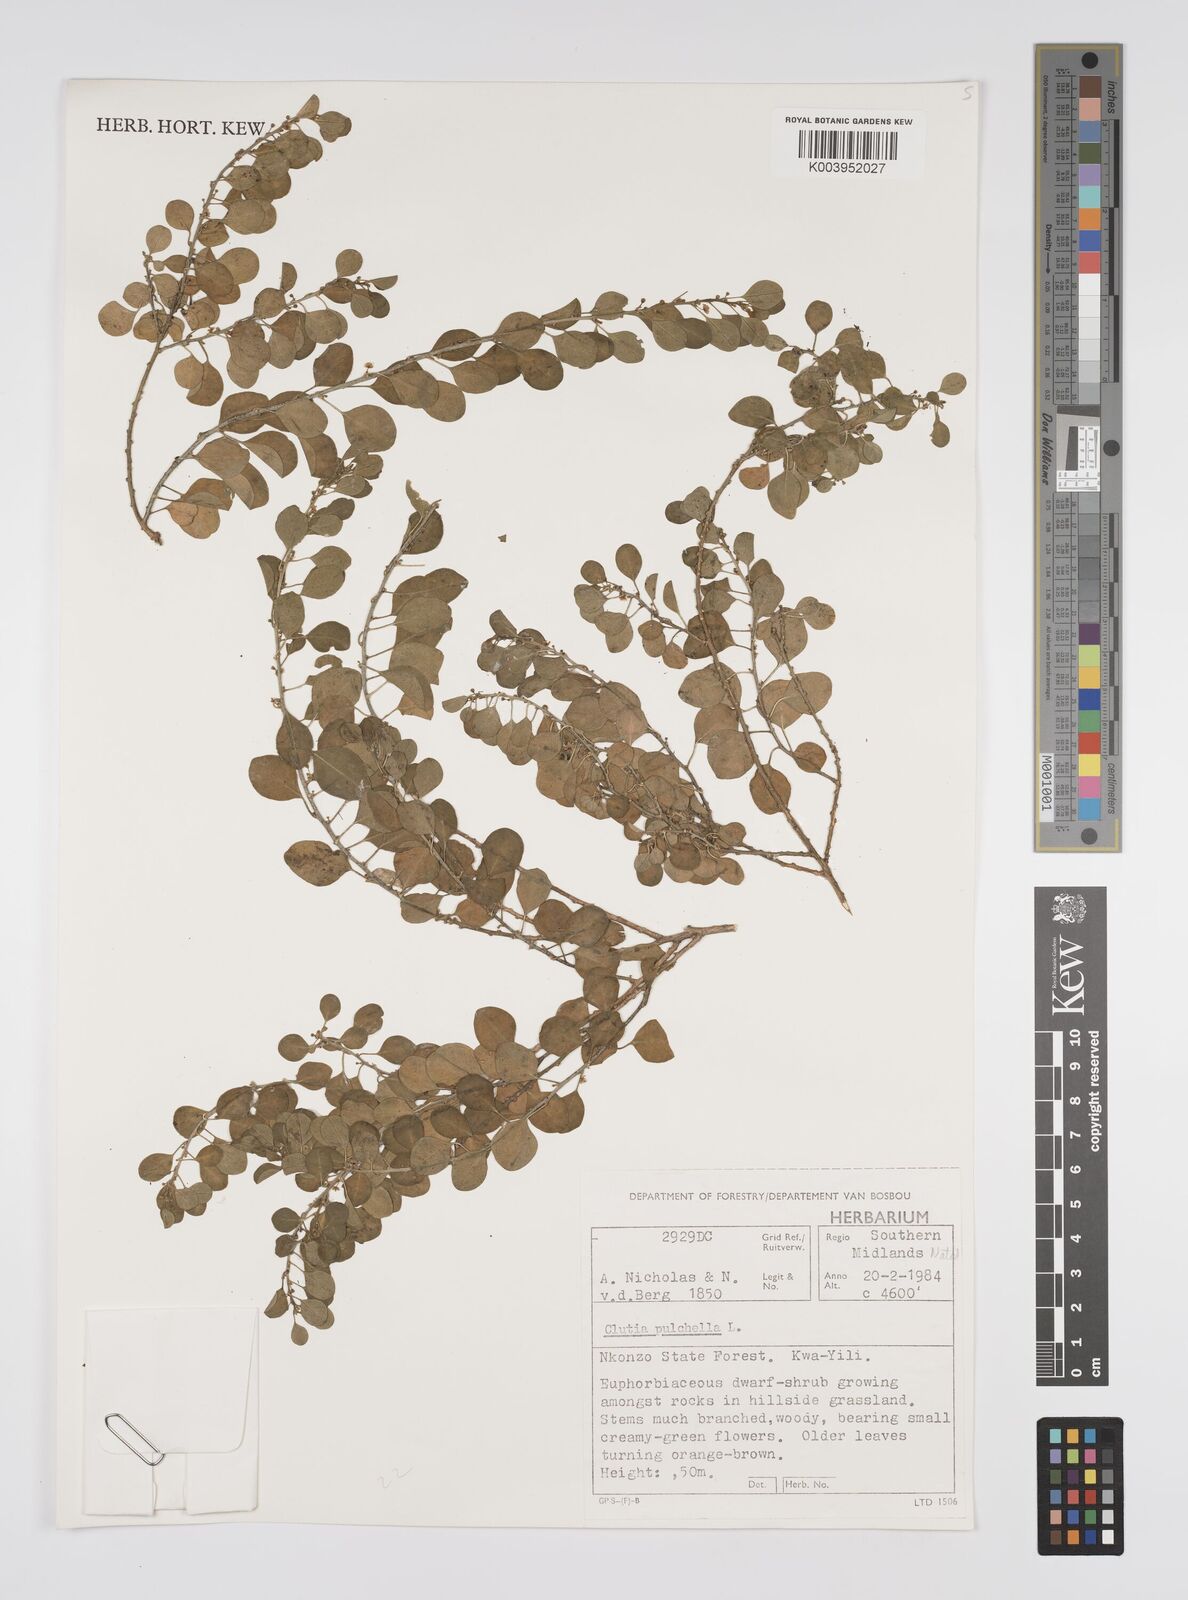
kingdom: Plantae
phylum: Tracheophyta
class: Magnoliopsida
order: Malpighiales
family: Peraceae
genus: Clutia
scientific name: Clutia pulchella
